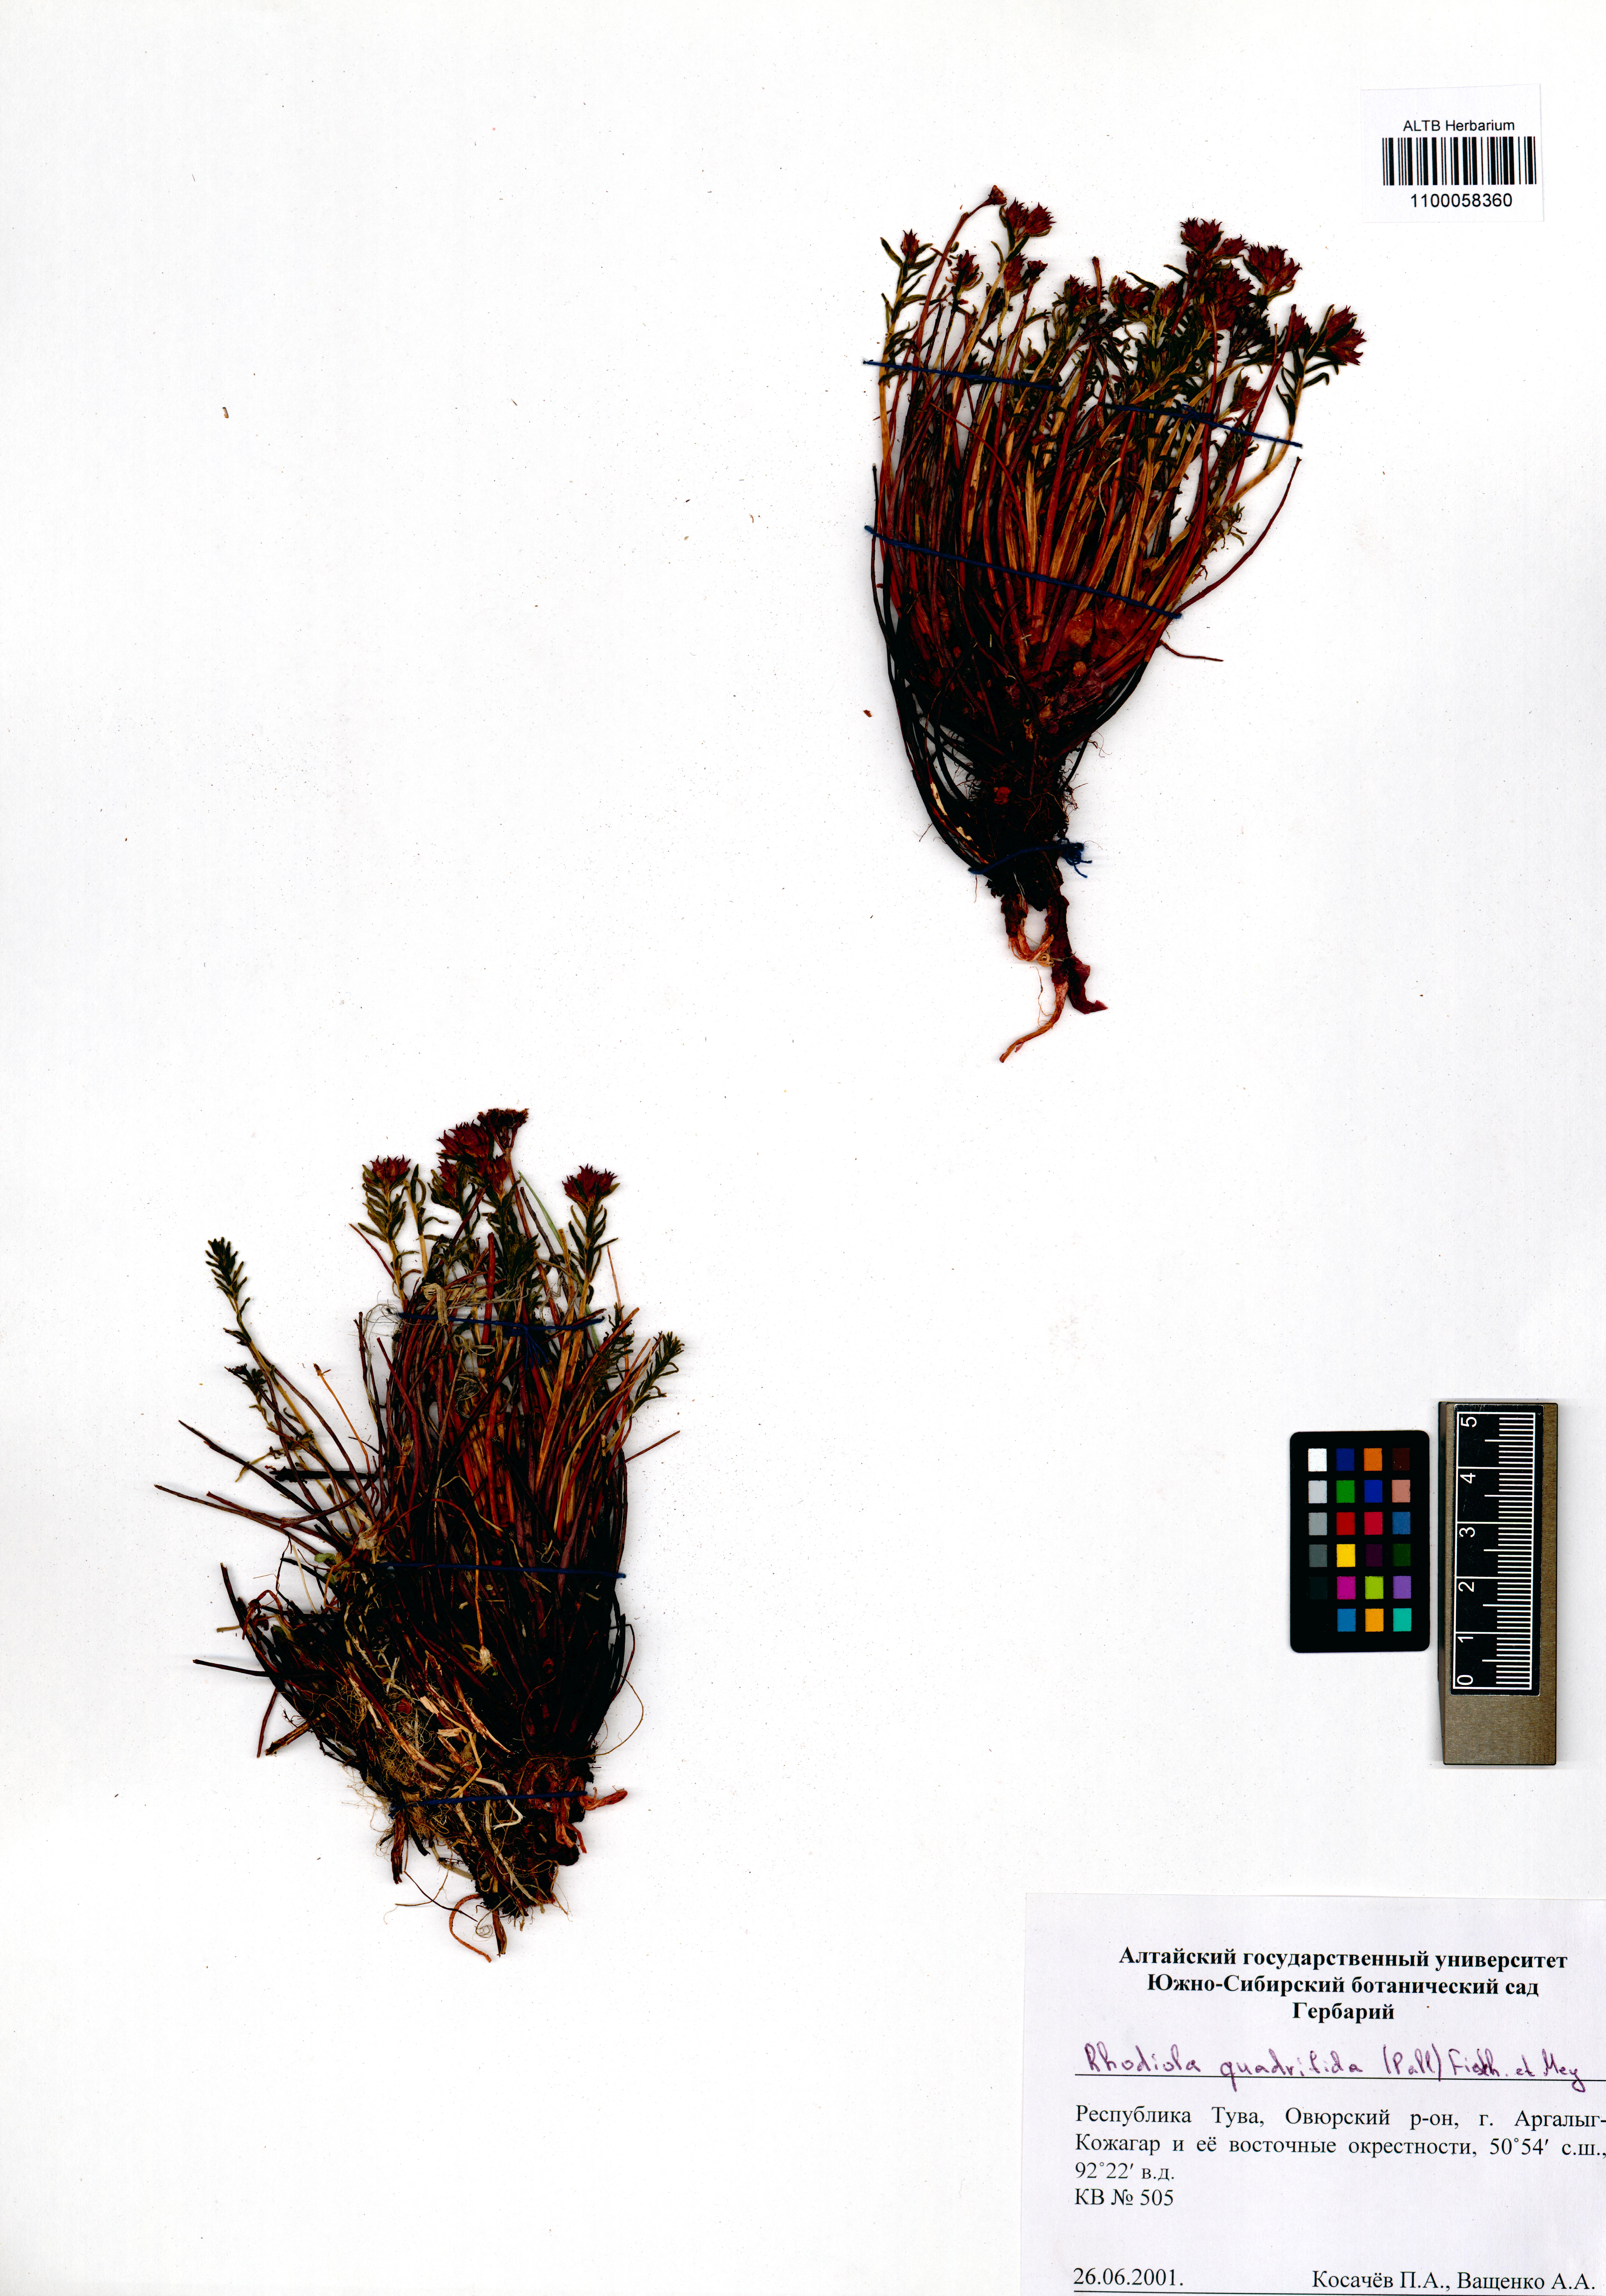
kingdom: Plantae
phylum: Tracheophyta
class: Magnoliopsida
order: Saxifragales
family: Crassulaceae
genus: Rhodiola
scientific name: Rhodiola quadrifida
